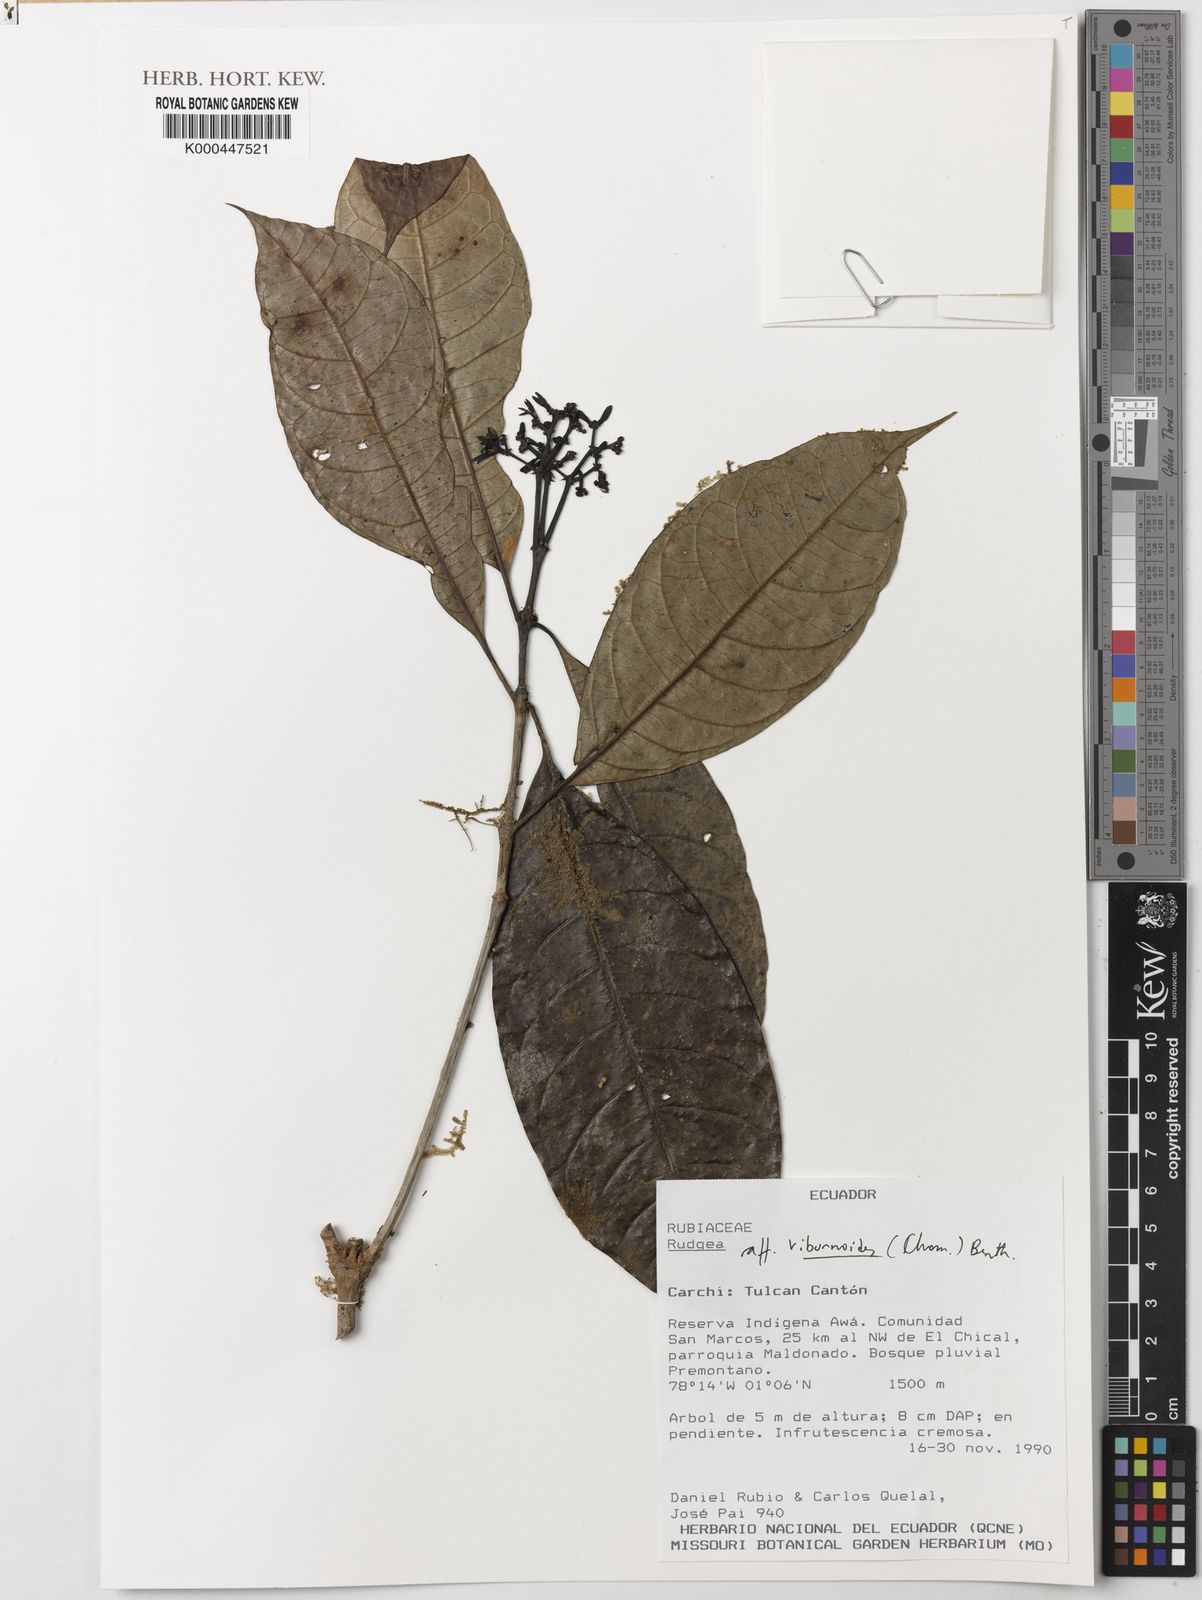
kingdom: Plantae
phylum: Tracheophyta
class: Magnoliopsida
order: Gentianales
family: Rubiaceae
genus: Rudgea
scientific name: Rudgea viburnoides
